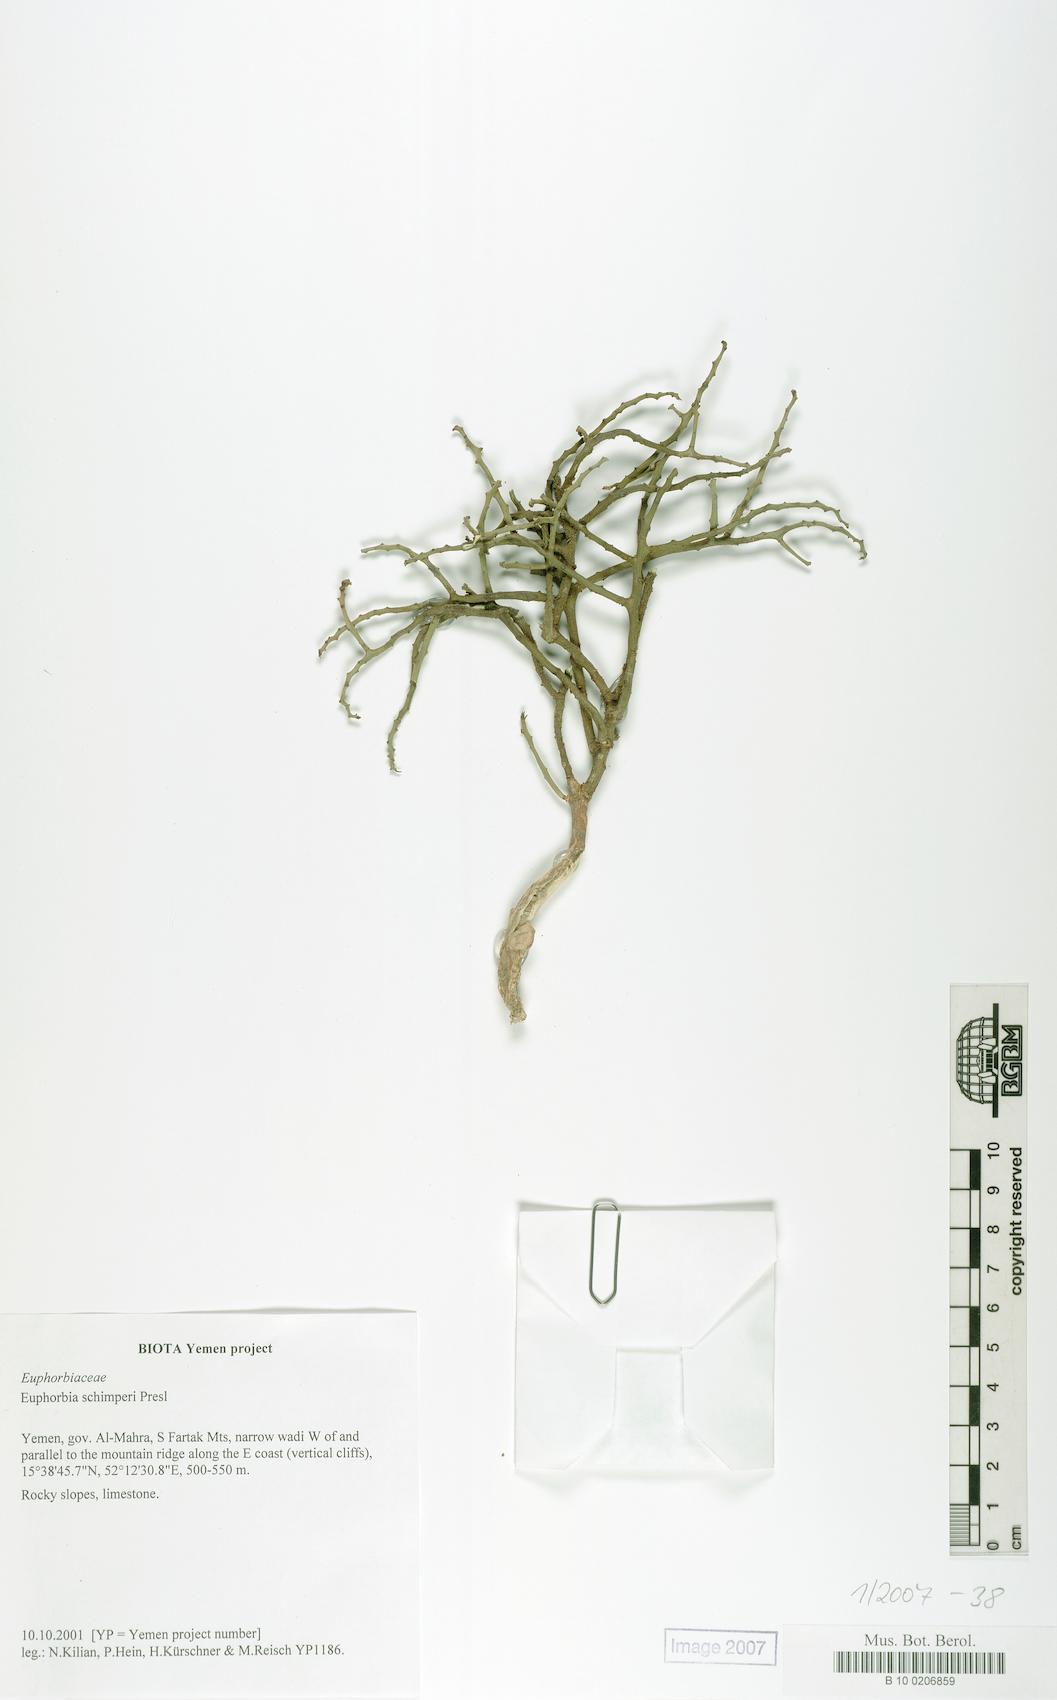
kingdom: Plantae
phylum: Tracheophyta
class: Magnoliopsida
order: Malpighiales
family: Euphorbiaceae
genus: Euphorbia
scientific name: Euphorbia schimperi
